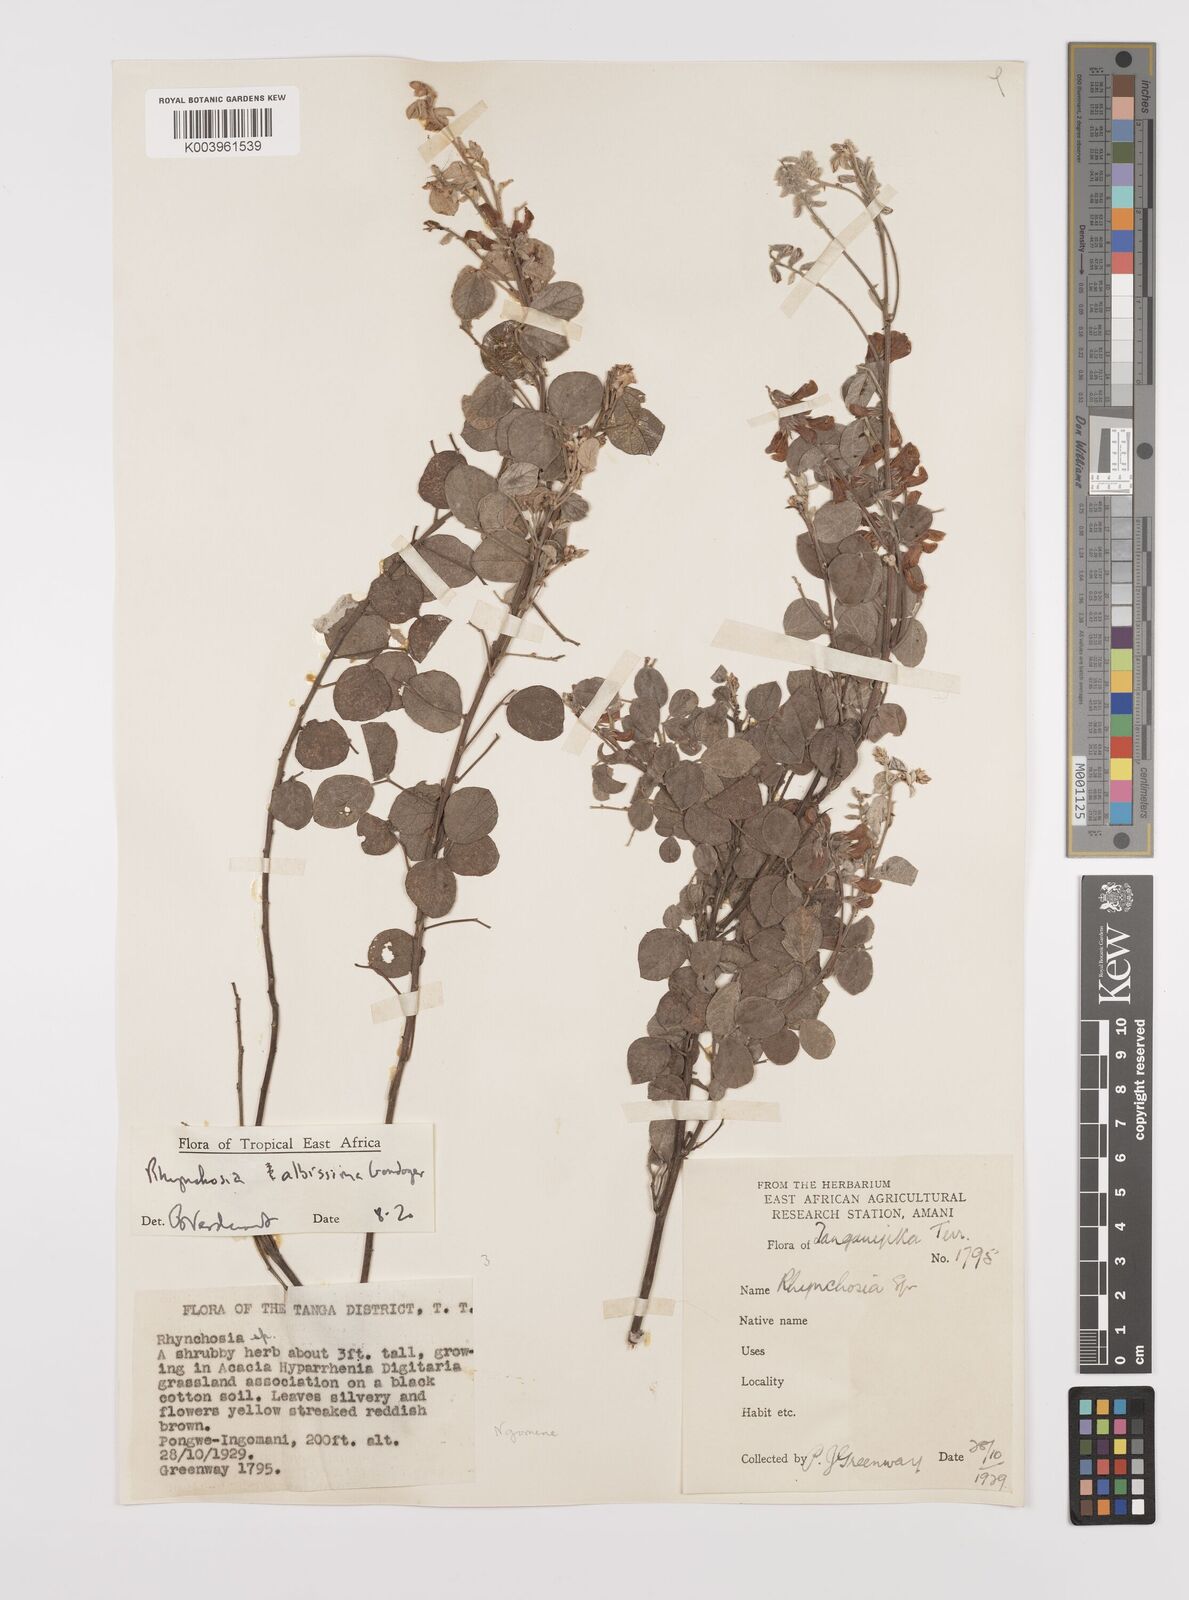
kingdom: Plantae
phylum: Tracheophyta
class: Magnoliopsida
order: Fabales
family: Fabaceae
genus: Rhynchosia
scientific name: Rhynchosia albissima
